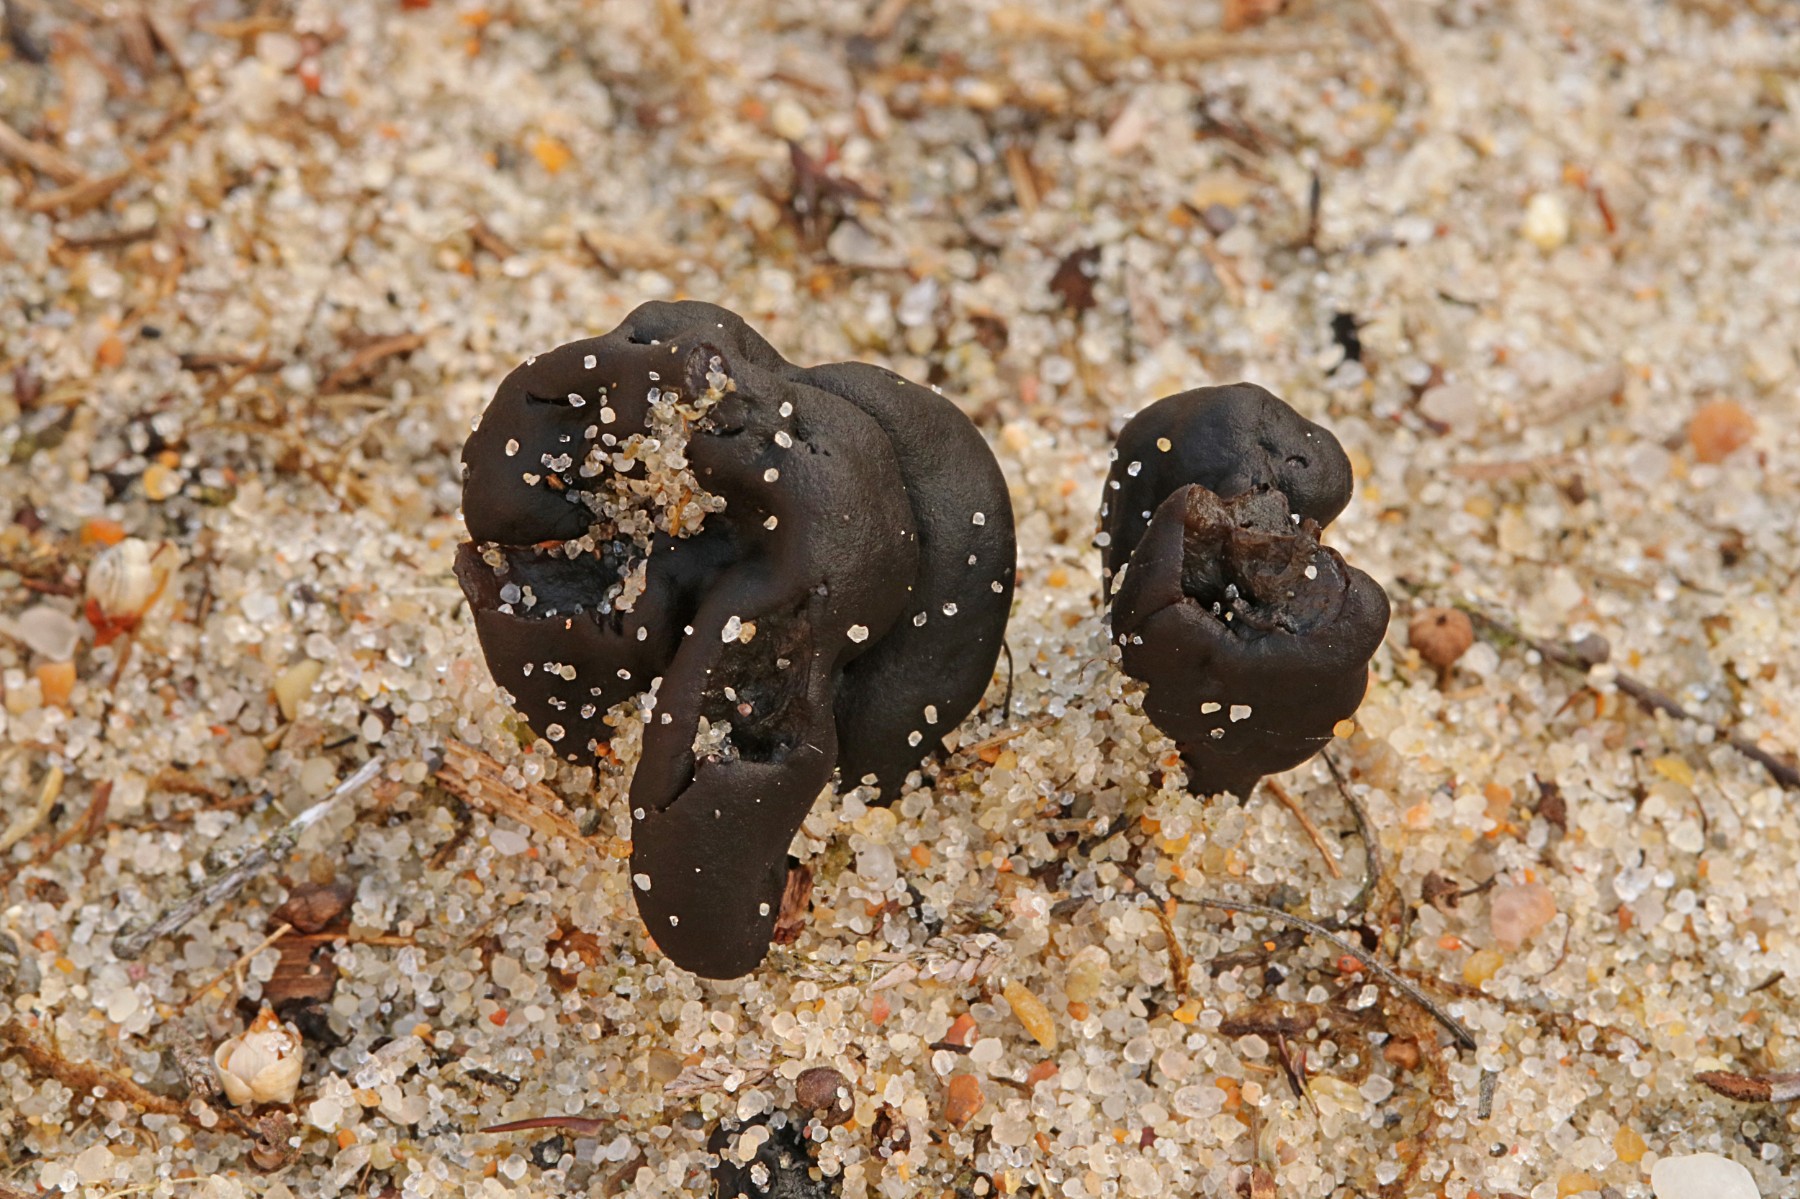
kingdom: Fungi
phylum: Ascomycota
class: Geoglossomycetes
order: Geoglossales
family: Geoglossaceae
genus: Sabuloglossum
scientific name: Sabuloglossum arenarium
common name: klit-jordtunge
